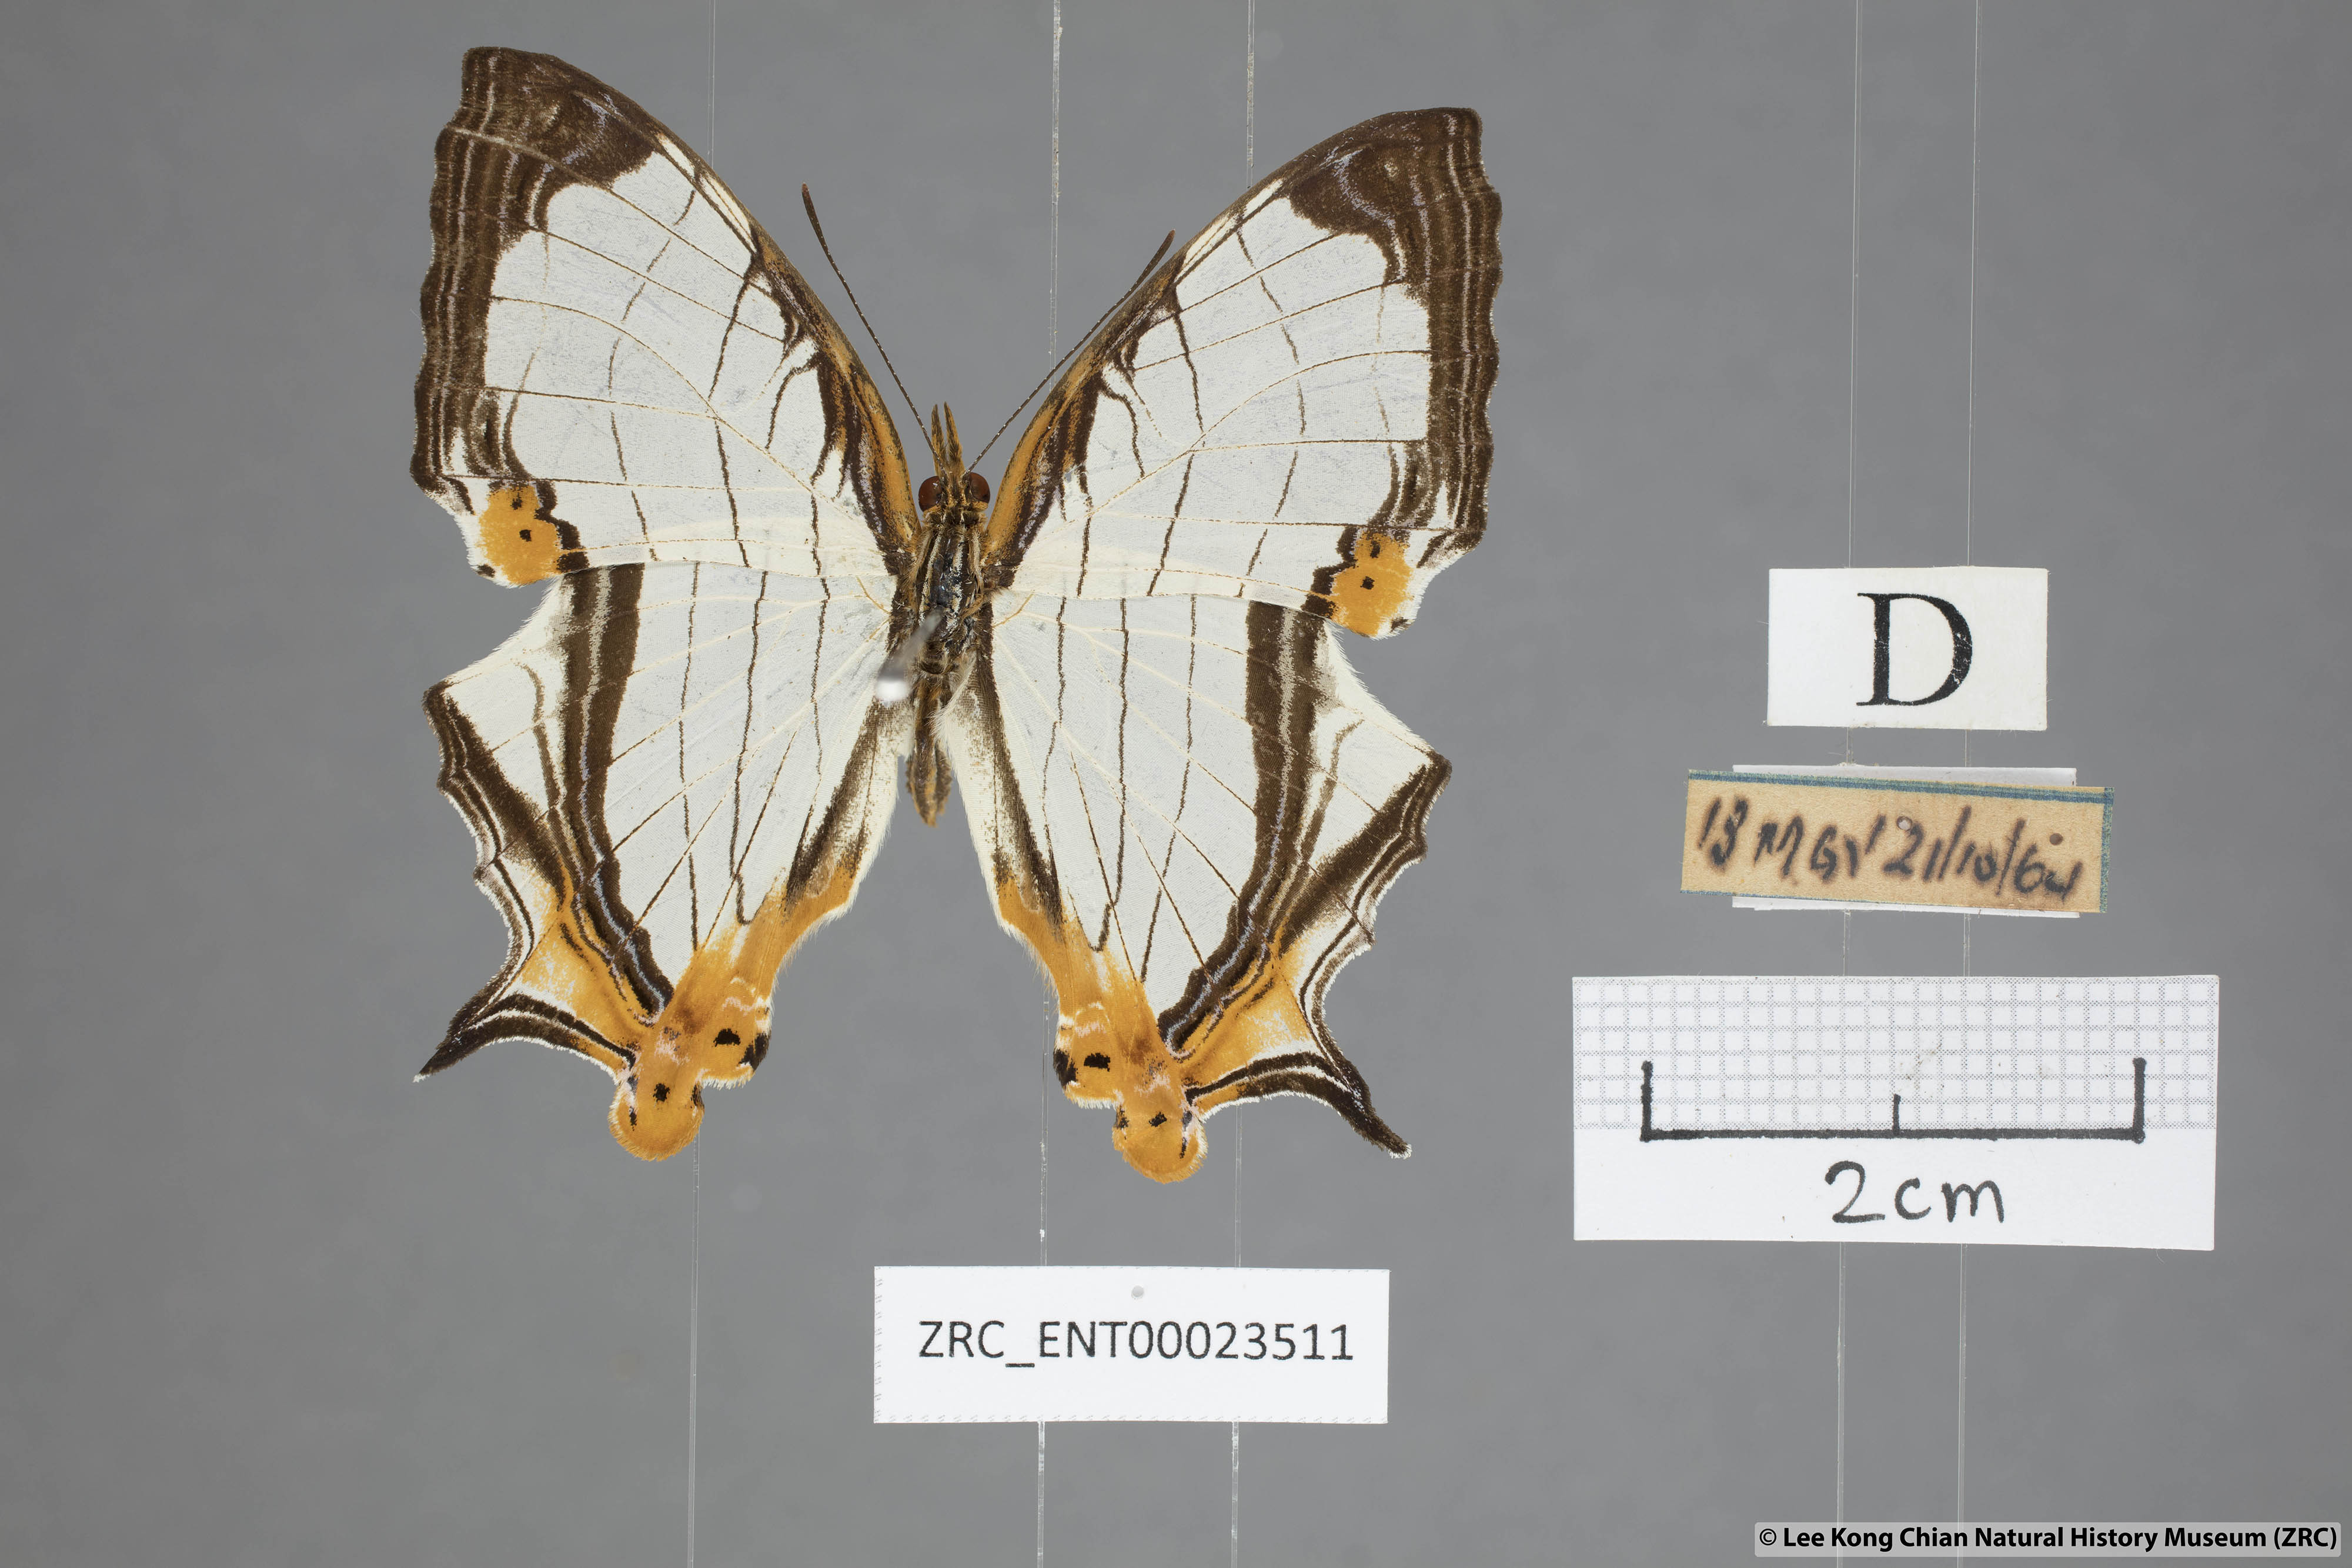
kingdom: Animalia
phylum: Arthropoda
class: Insecta
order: Lepidoptera
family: Nymphalidae
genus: Cyrestis
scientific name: Cyrestis nivea
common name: Straight line mapwing
